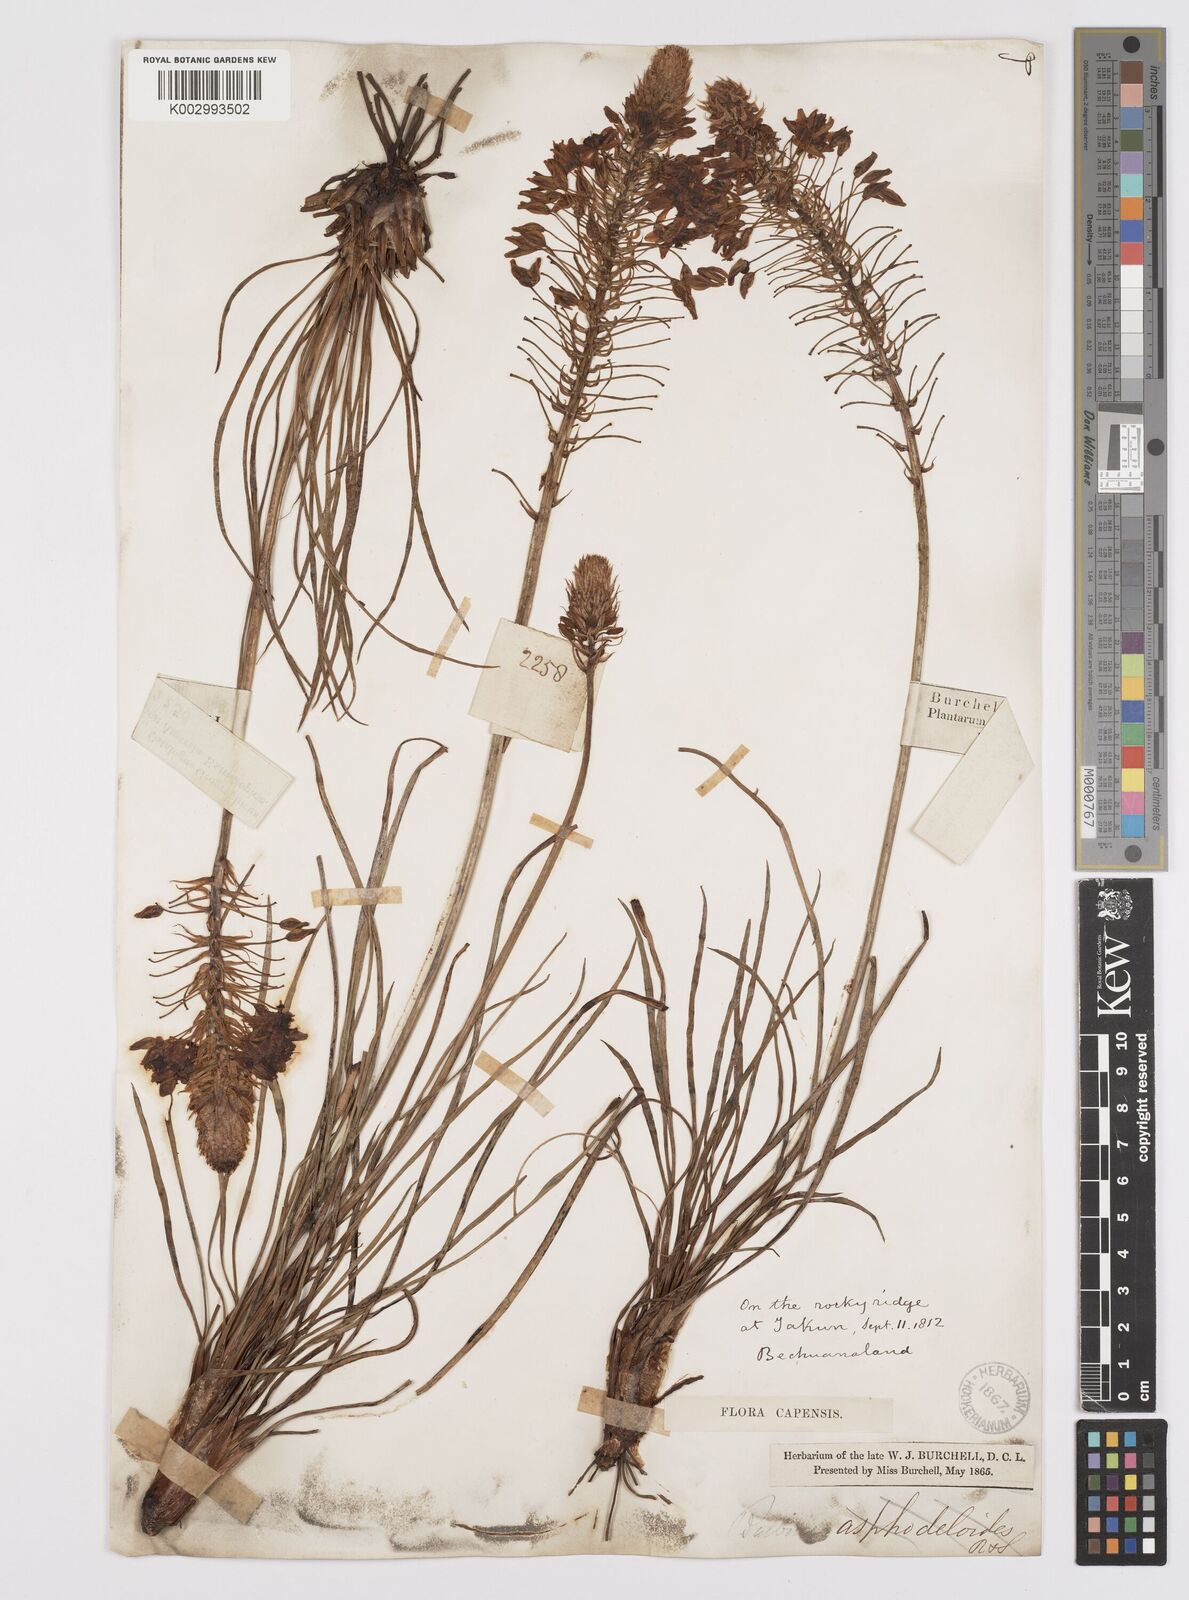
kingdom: Plantae
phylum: Tracheophyta
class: Liliopsida
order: Asparagales
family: Asphodelaceae
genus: Bulbine
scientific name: Bulbine abyssinica
